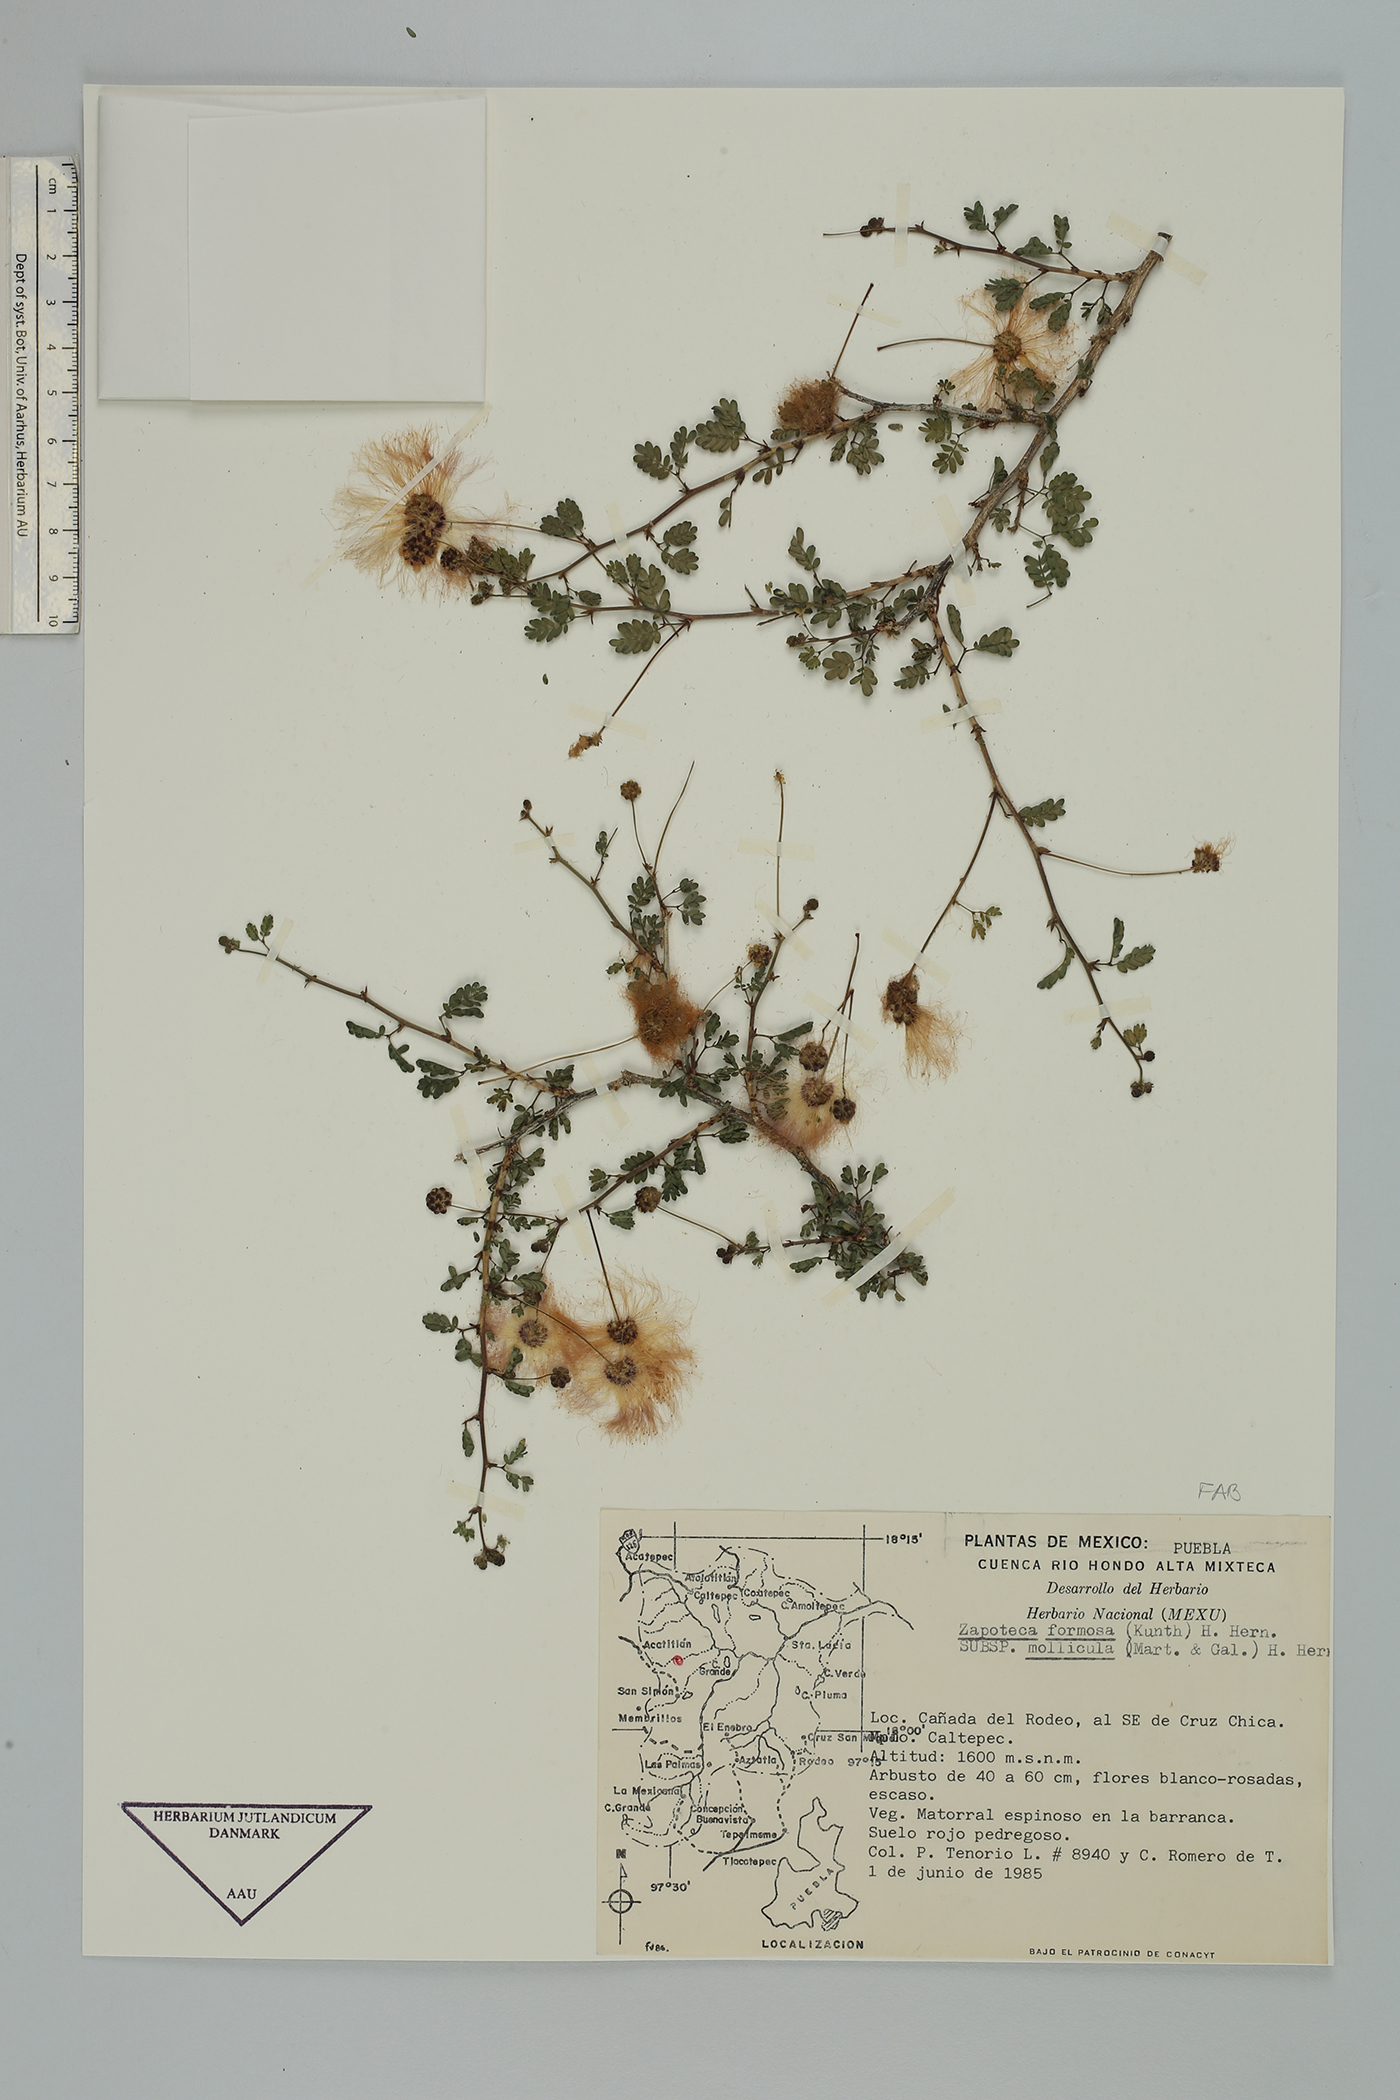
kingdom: Plantae
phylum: Tracheophyta
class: Magnoliopsida
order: Fabales
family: Fabaceae
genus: Zapoteca
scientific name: Zapoteca formosa
